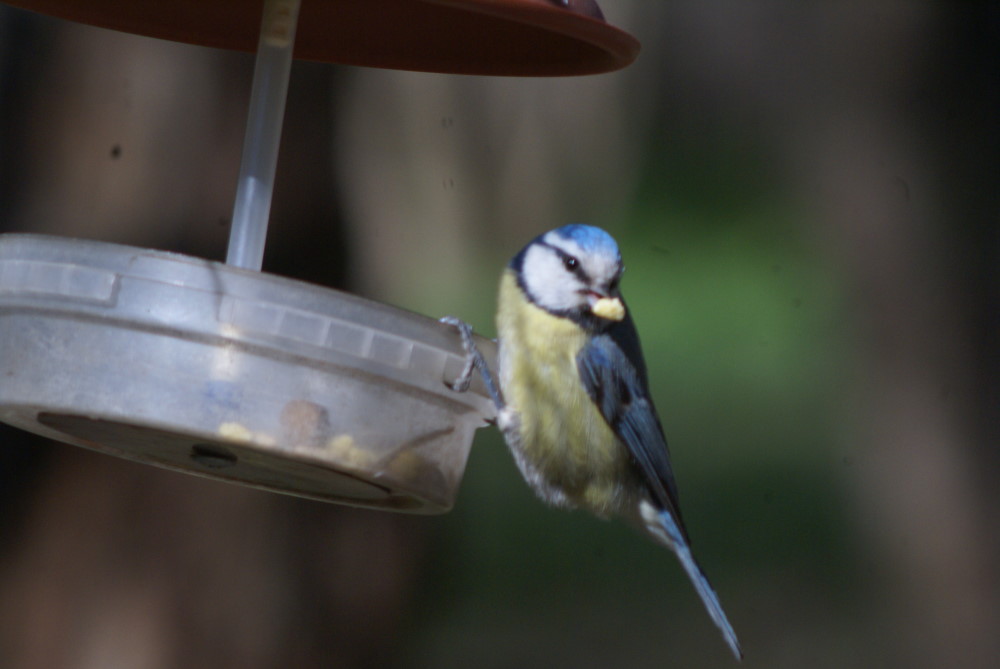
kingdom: Animalia
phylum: Chordata
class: Aves
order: Passeriformes
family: Paridae
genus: Cyanistes
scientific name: Cyanistes caeruleus
